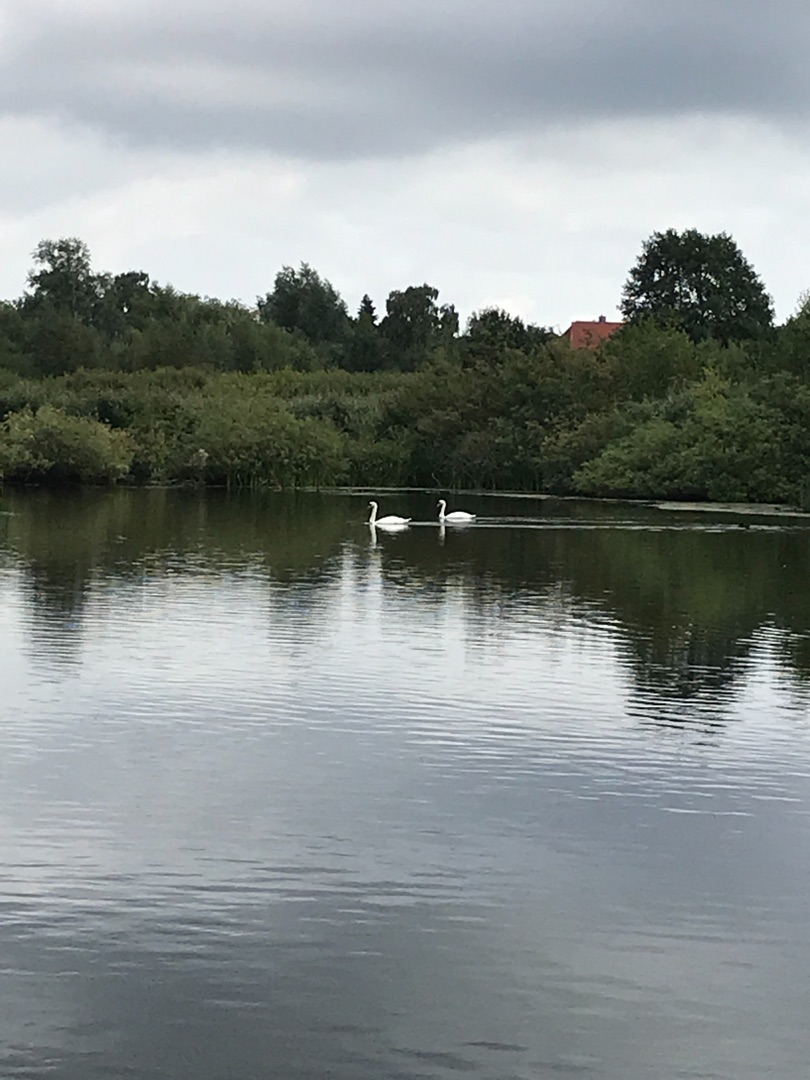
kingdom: Animalia
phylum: Chordata
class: Aves
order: Anseriformes
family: Anatidae
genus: Cygnus
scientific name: Cygnus olor
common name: Knopsvane
